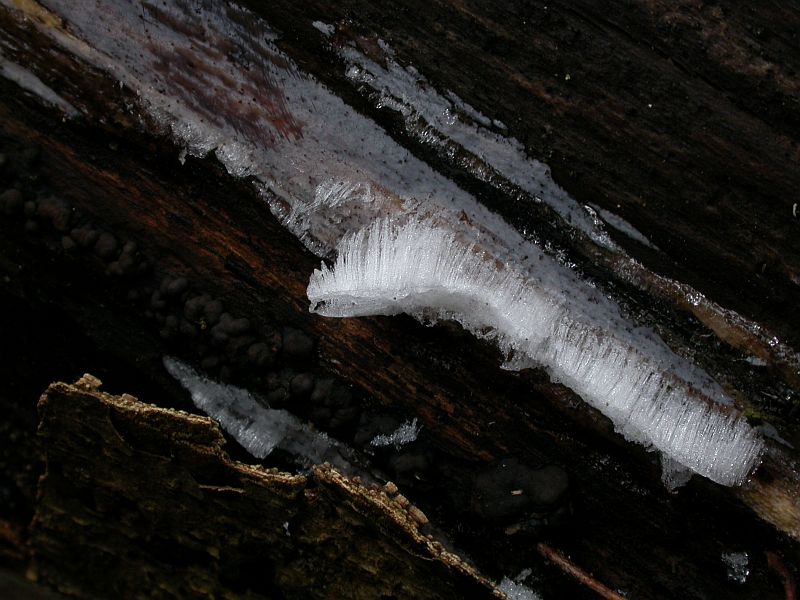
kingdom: Fungi
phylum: Basidiomycota
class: Tremellomycetes
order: Tremellales
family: Exidiaceae
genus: Exidiopsis
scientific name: Exidiopsis effusa
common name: smuk bævrehinde
